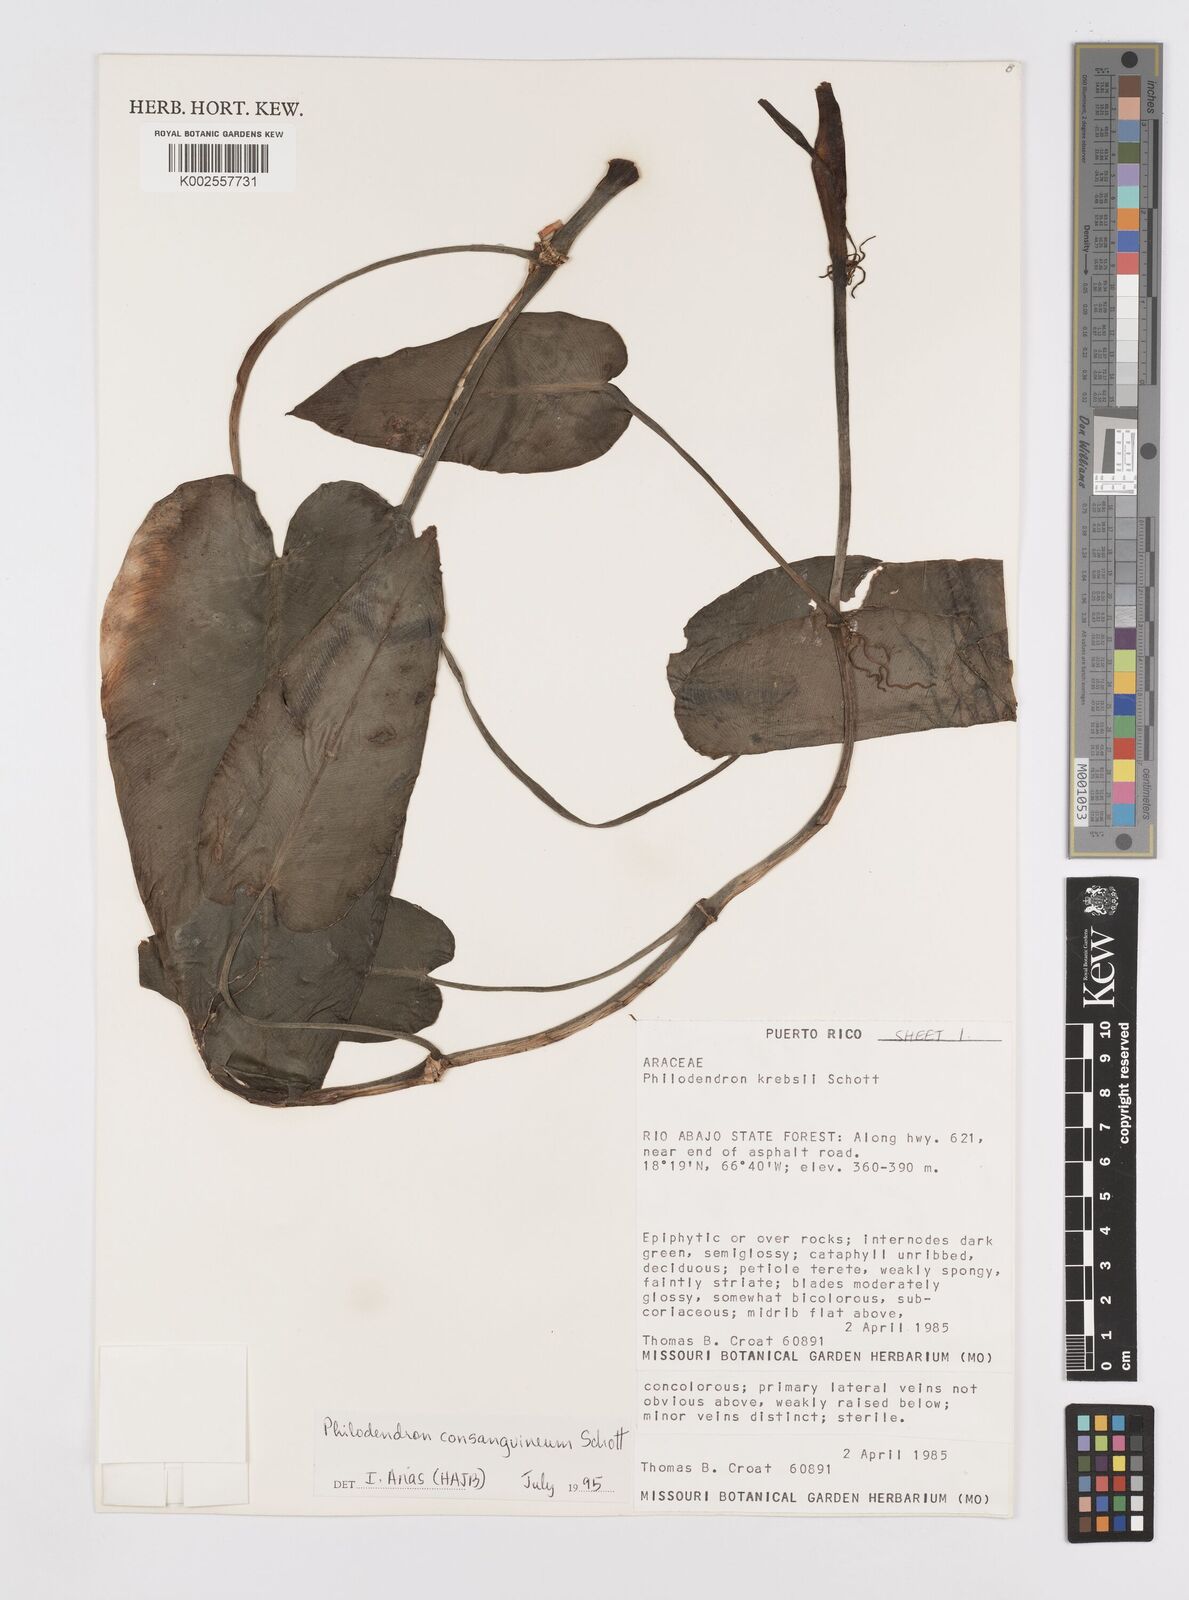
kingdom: Plantae
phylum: Tracheophyta
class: Liliopsida
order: Alismatales
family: Araceae
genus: Philodendron
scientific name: Philodendron consanguineum
